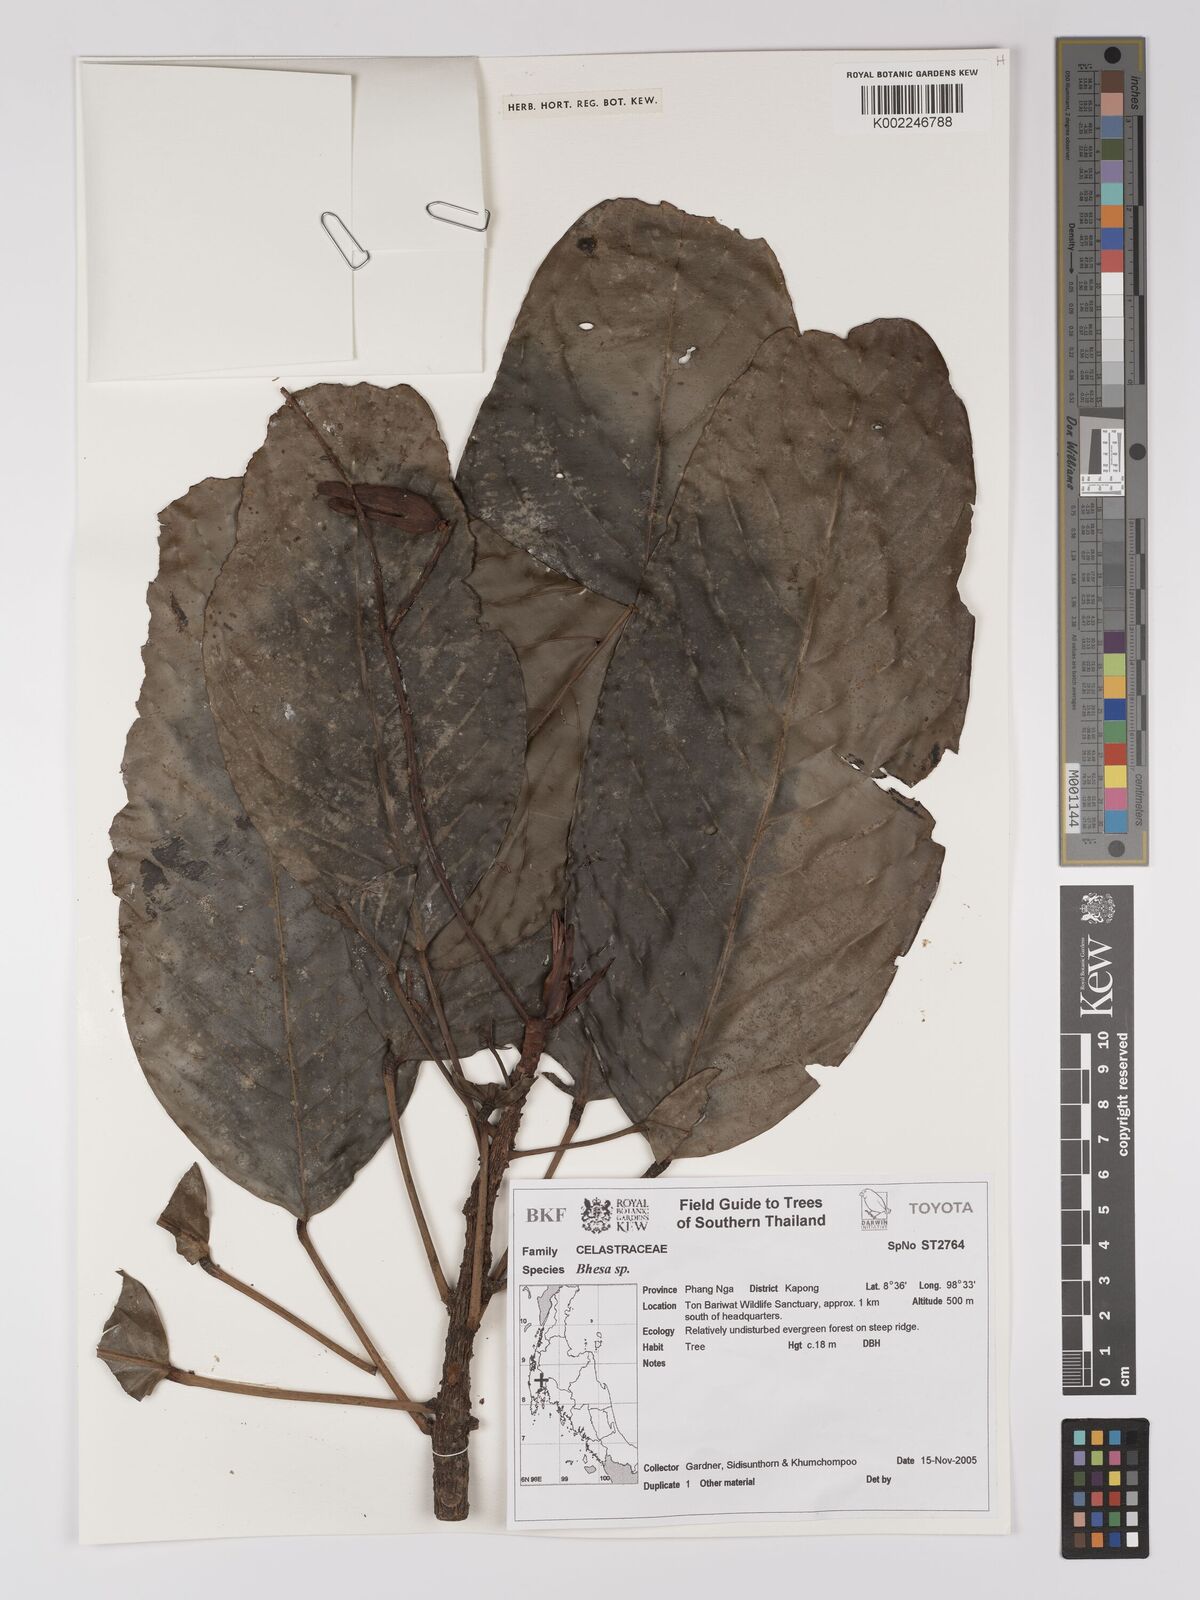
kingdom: Plantae
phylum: Tracheophyta
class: Magnoliopsida
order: Malpighiales
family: Centroplacaceae
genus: Bhesa
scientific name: Bhesa
